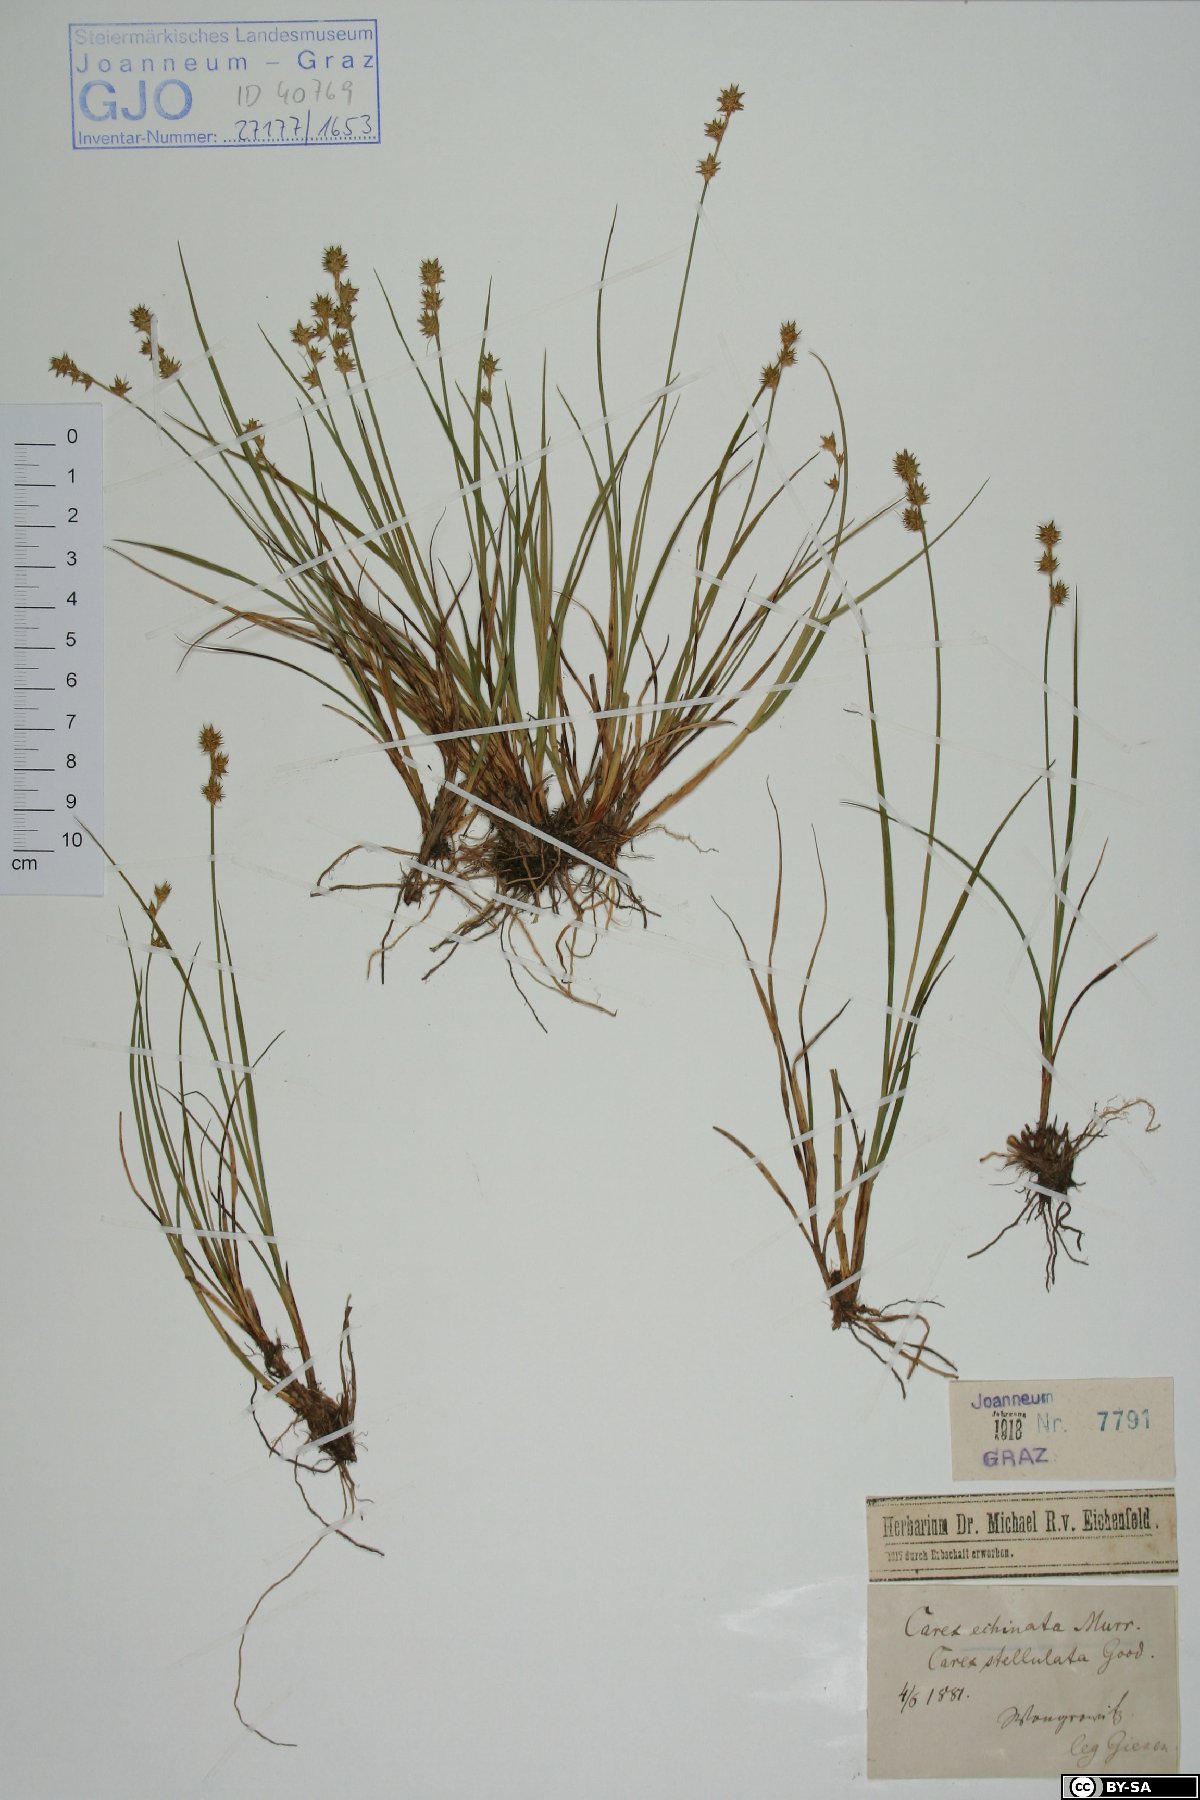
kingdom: Plantae
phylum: Tracheophyta
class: Liliopsida
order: Poales
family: Cyperaceae
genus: Carex
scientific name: Carex echinata
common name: Star sedge
